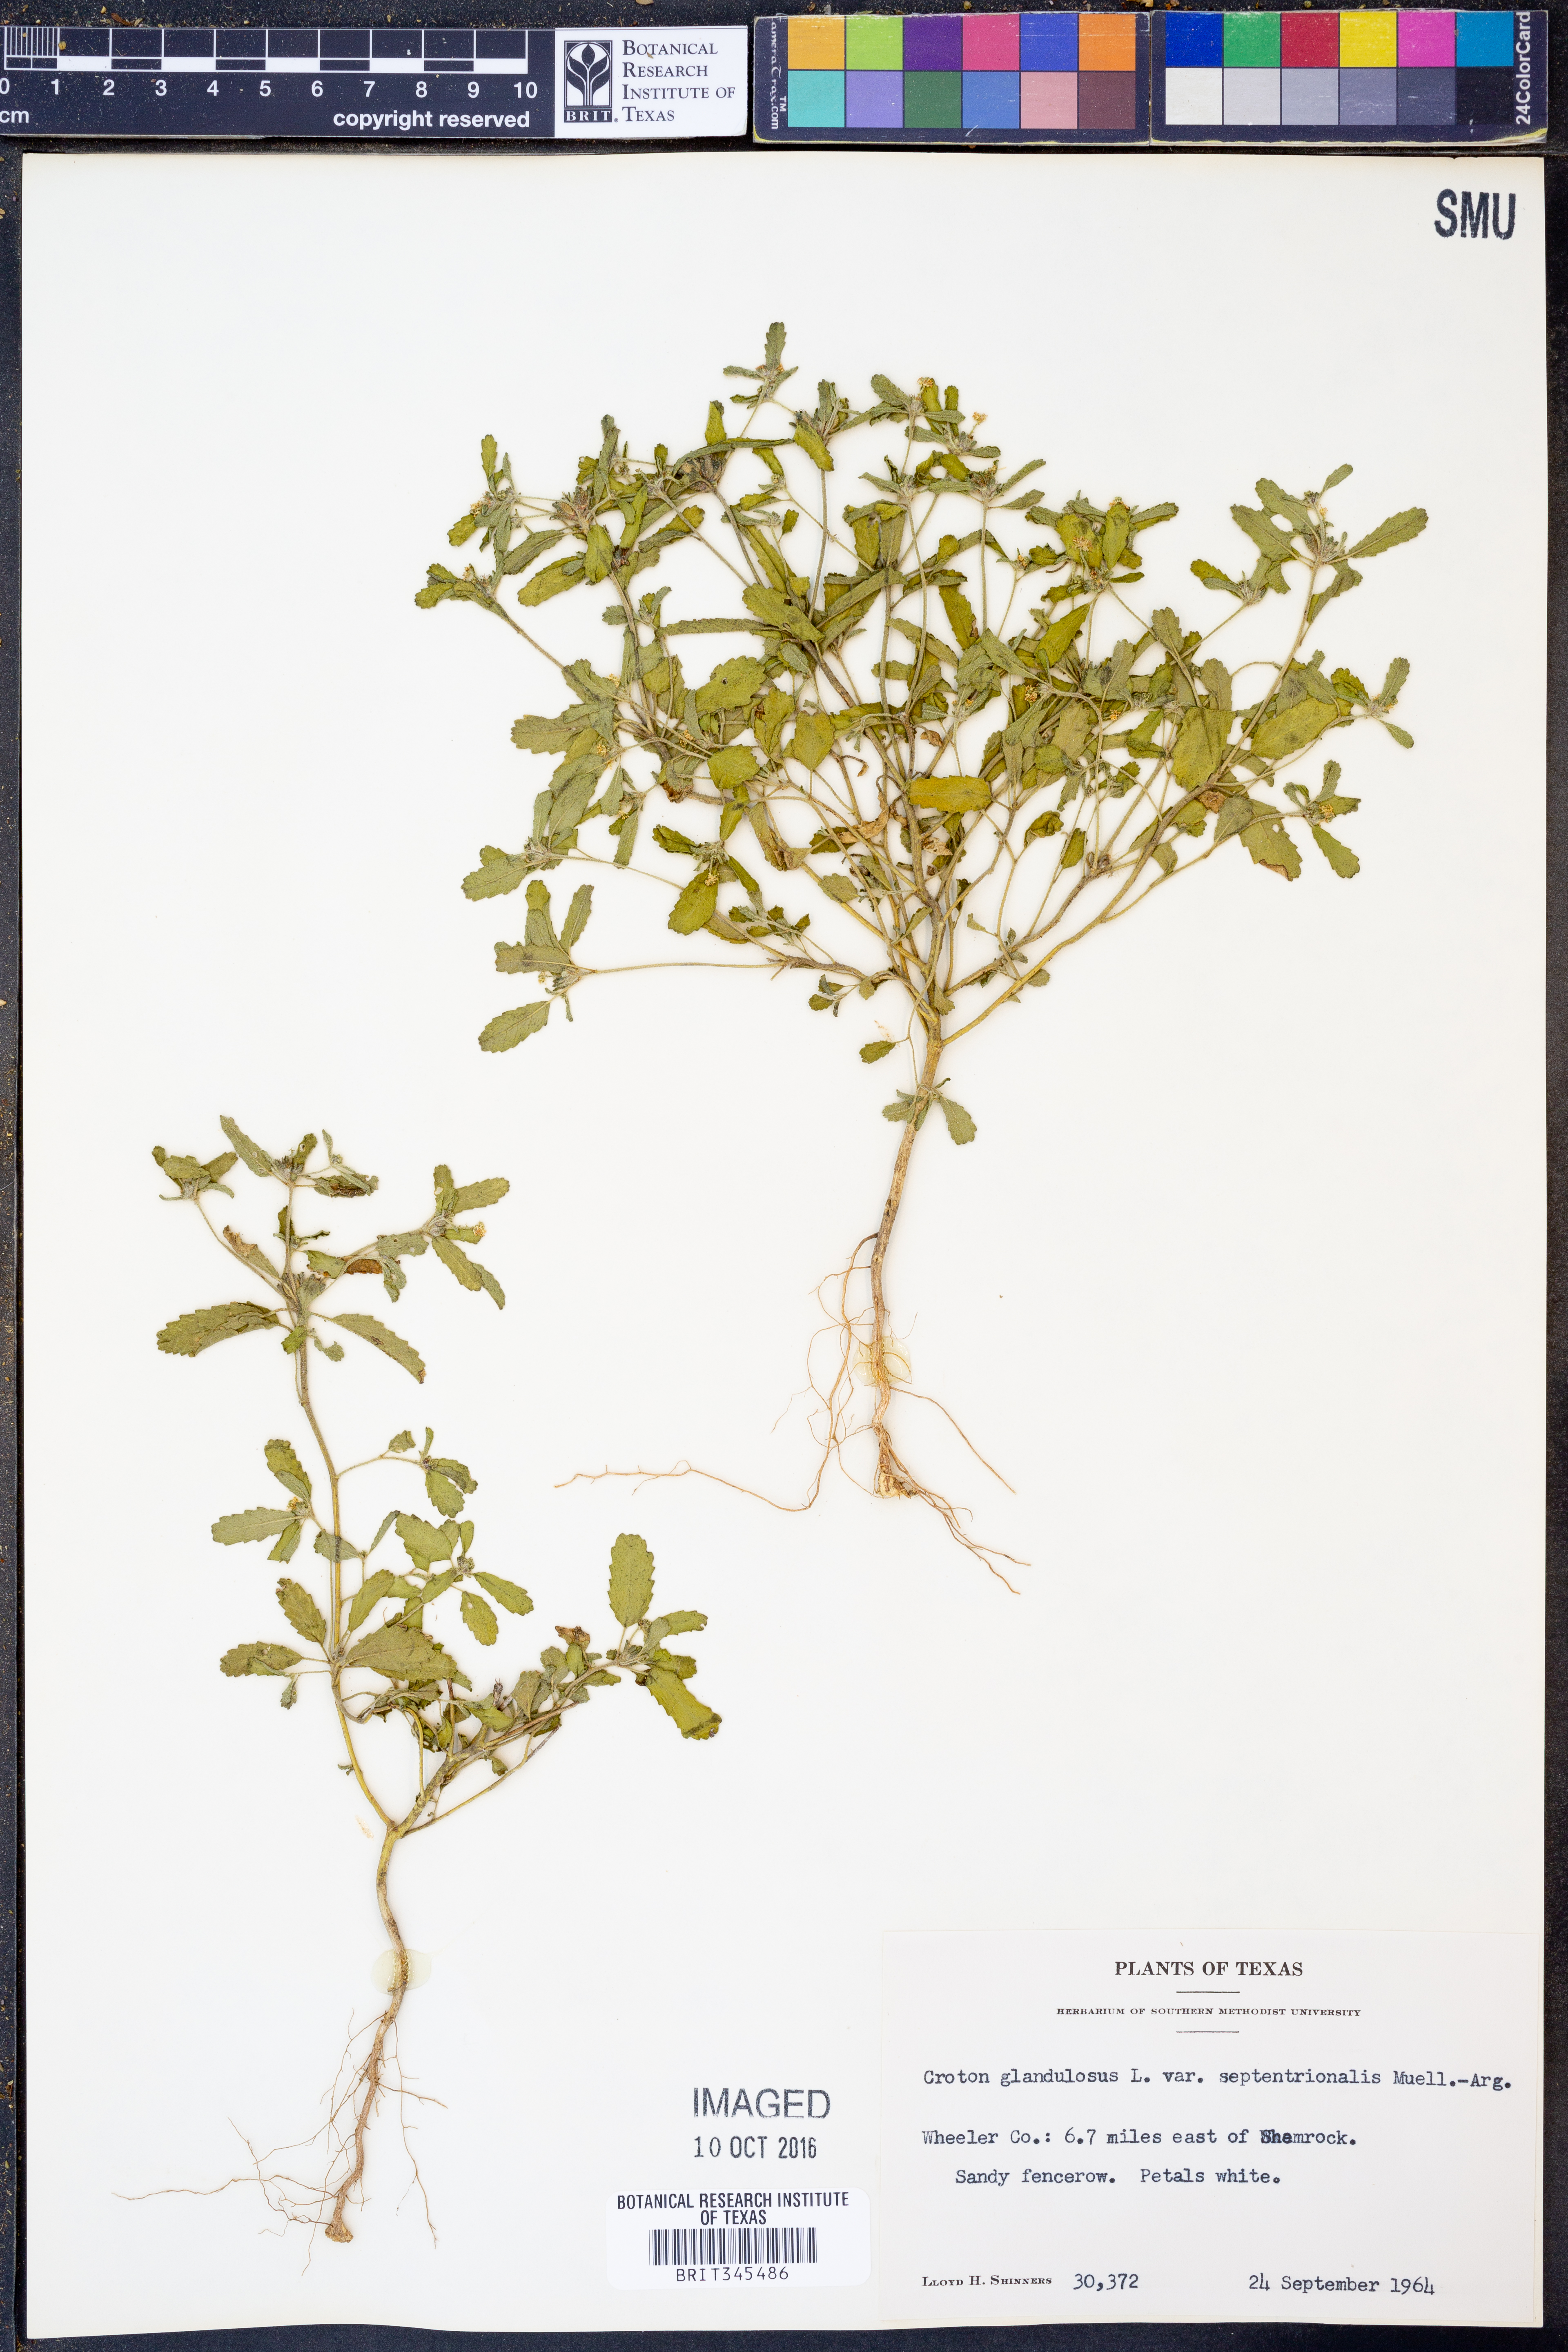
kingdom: Plantae
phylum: Tracheophyta
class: Magnoliopsida
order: Malpighiales
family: Euphorbiaceae
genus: Croton
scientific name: Croton glandulosus
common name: Tropic croton
